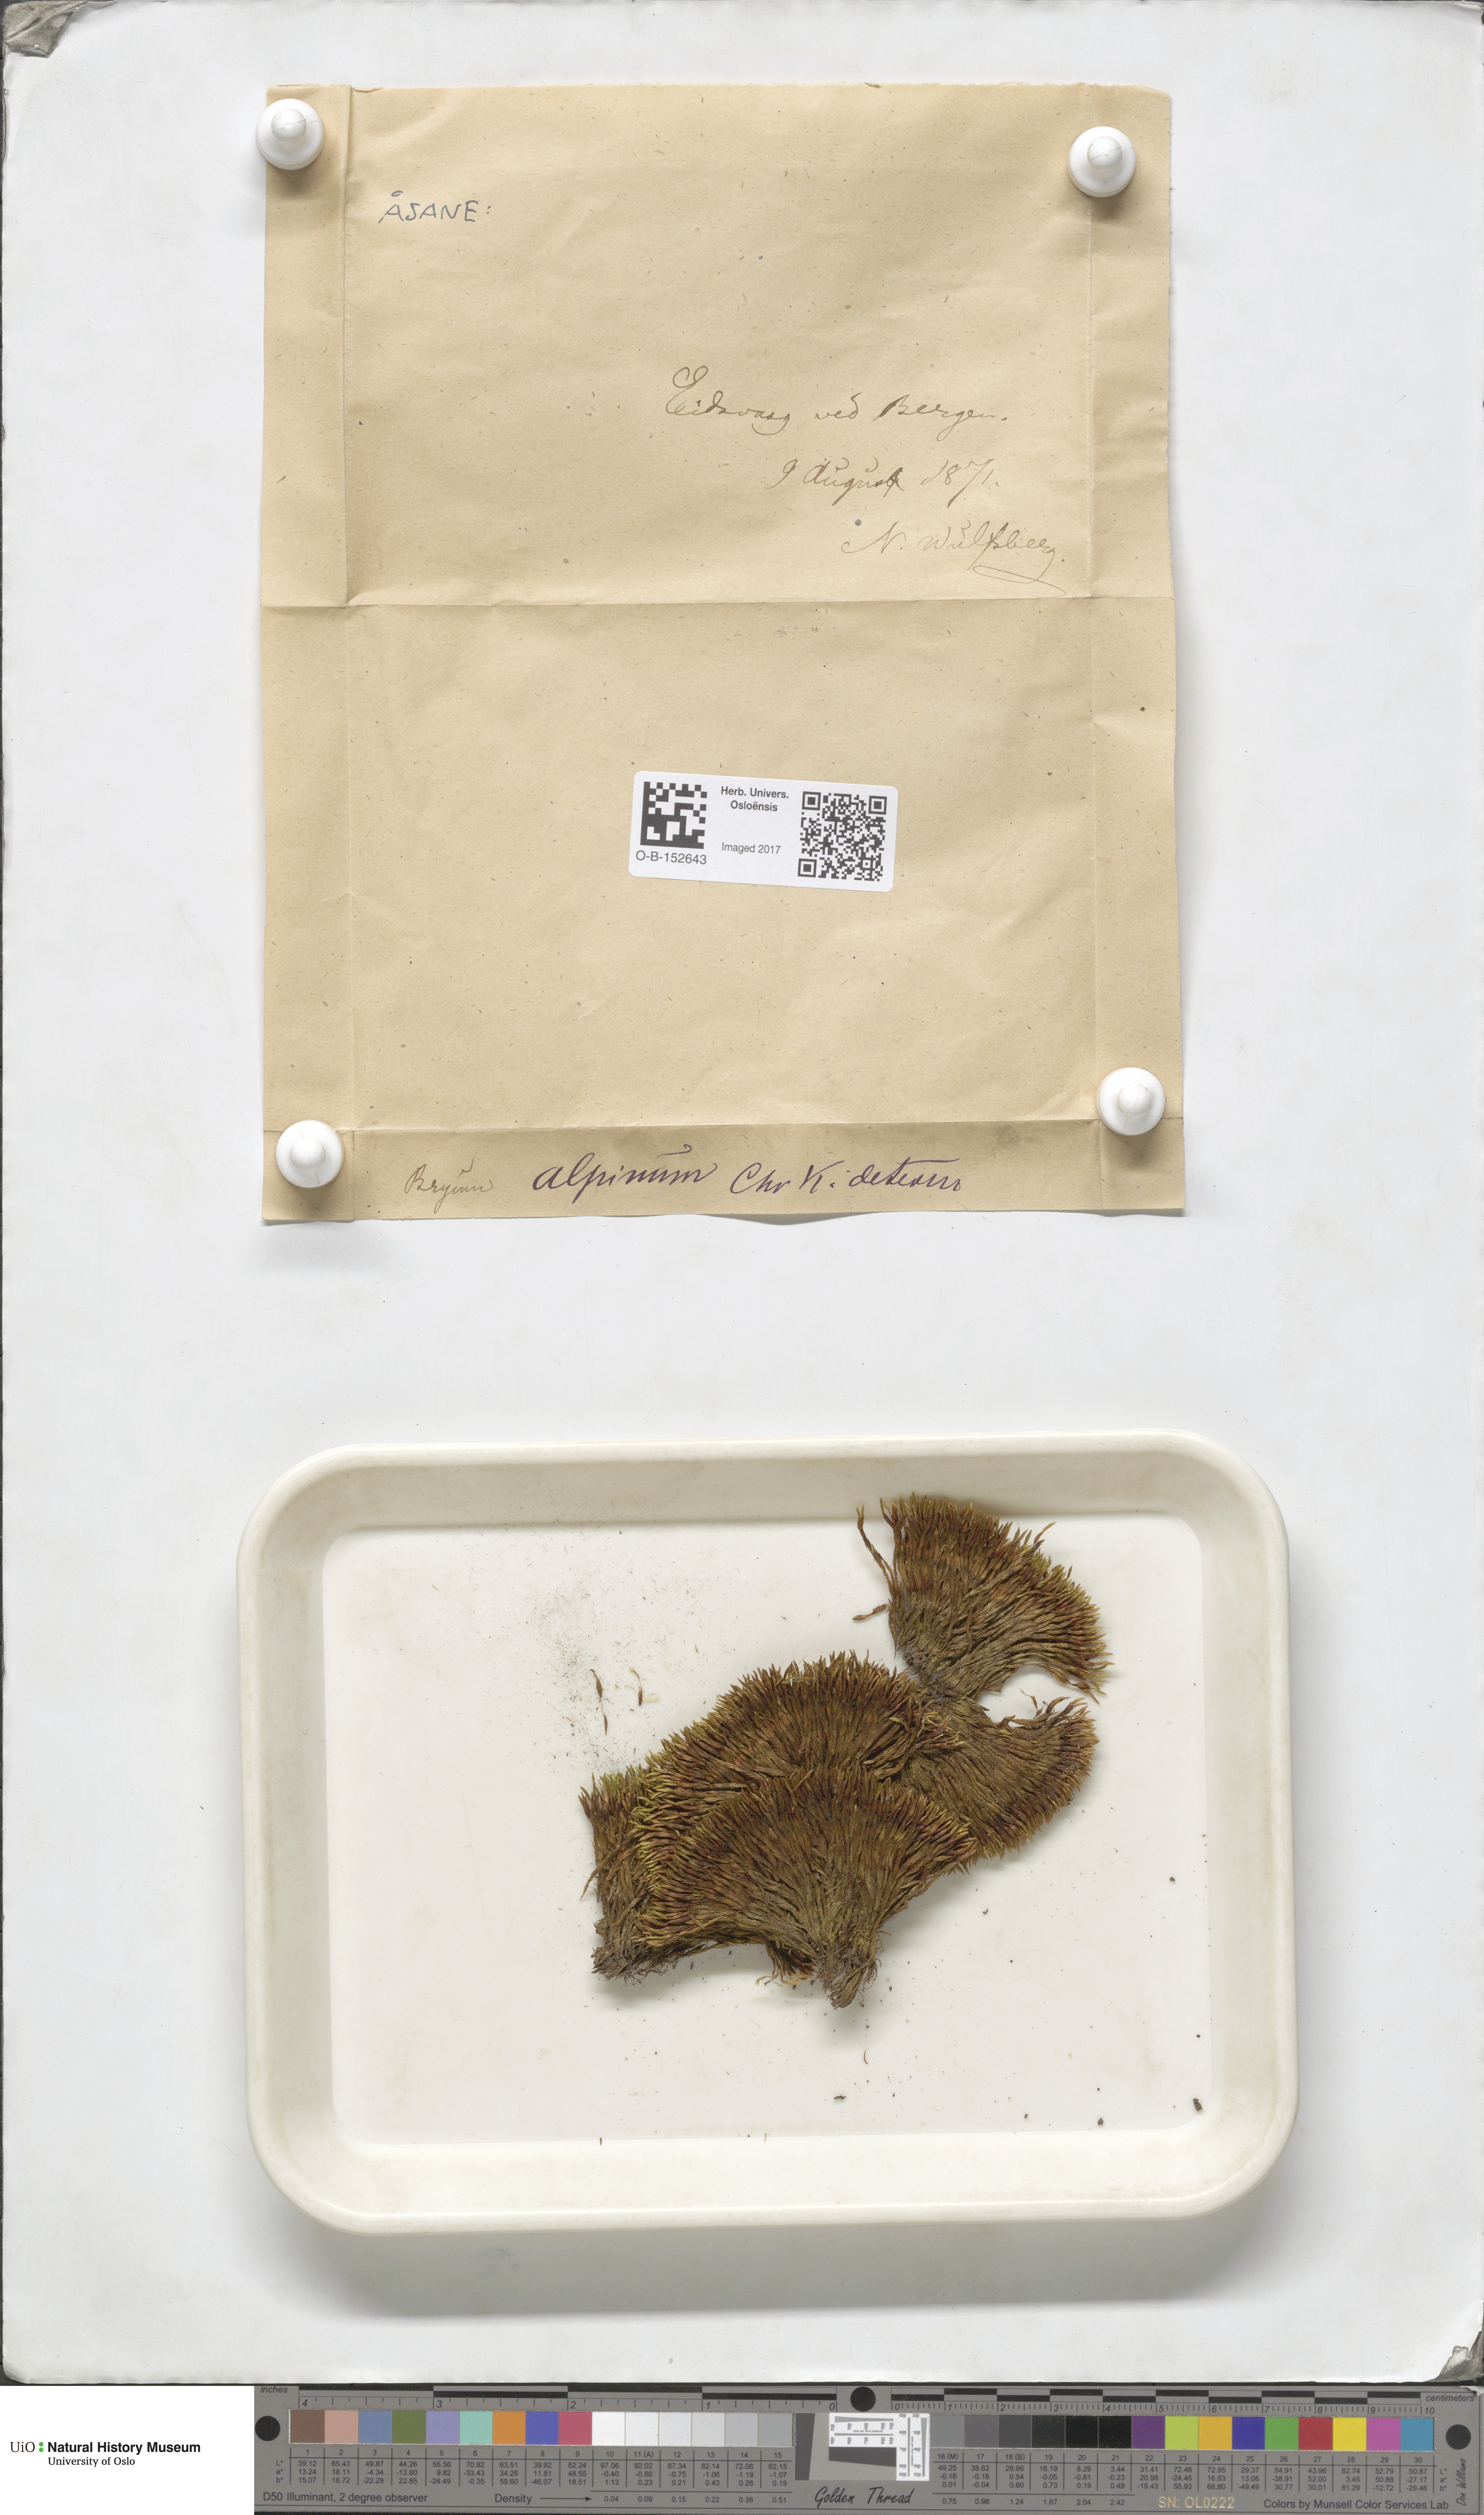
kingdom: Plantae
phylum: Bryophyta
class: Bryopsida
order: Bryales
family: Bryaceae
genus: Imbribryum
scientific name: Imbribryum alpinum
